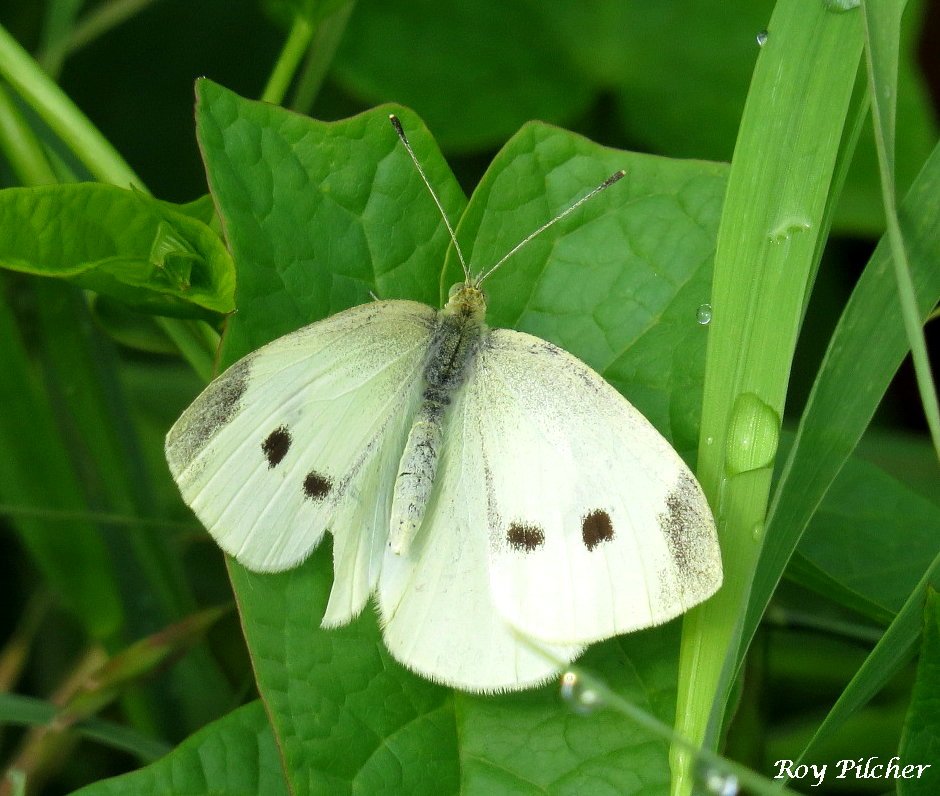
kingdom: Animalia
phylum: Arthropoda
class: Insecta
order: Lepidoptera
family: Pieridae
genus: Pieris
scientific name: Pieris rapae
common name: Cabbage White
